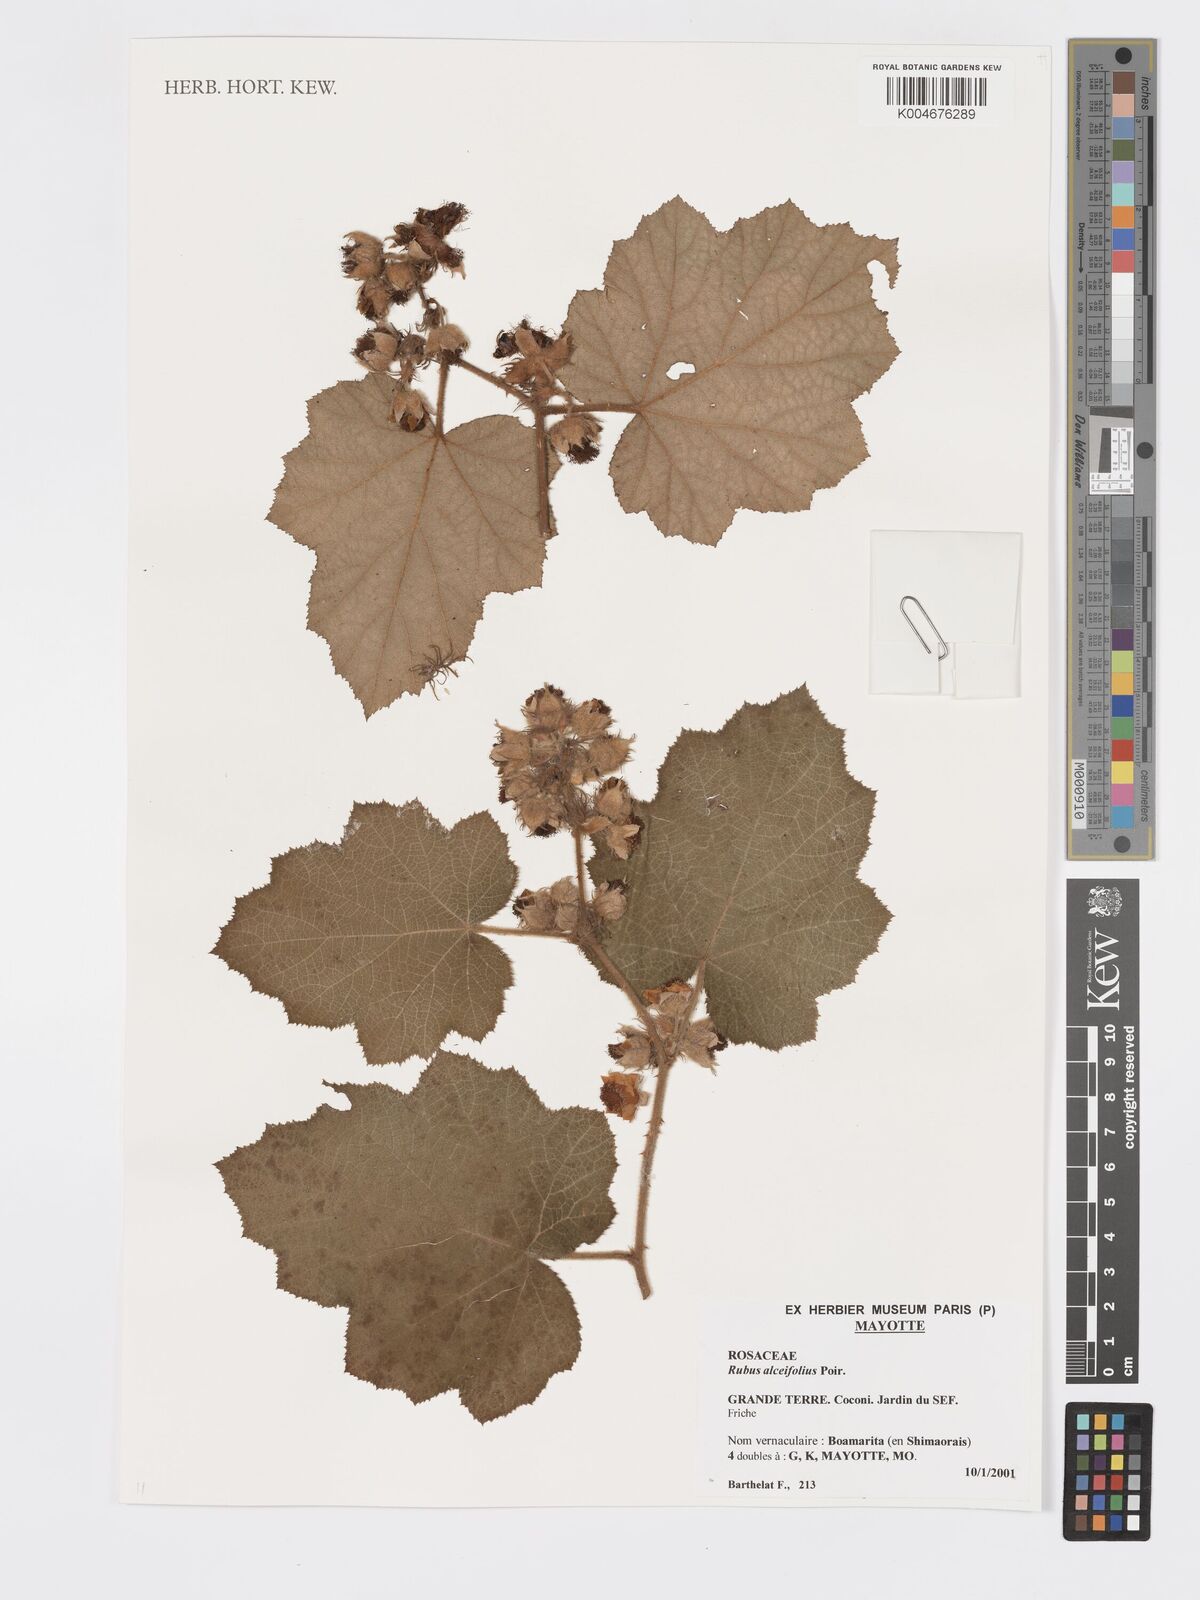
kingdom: Plantae
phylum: Tracheophyta
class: Magnoliopsida
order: Rosales
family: Rosaceae
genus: Rubus
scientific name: Rubus alceifolius
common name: Giant bramble
